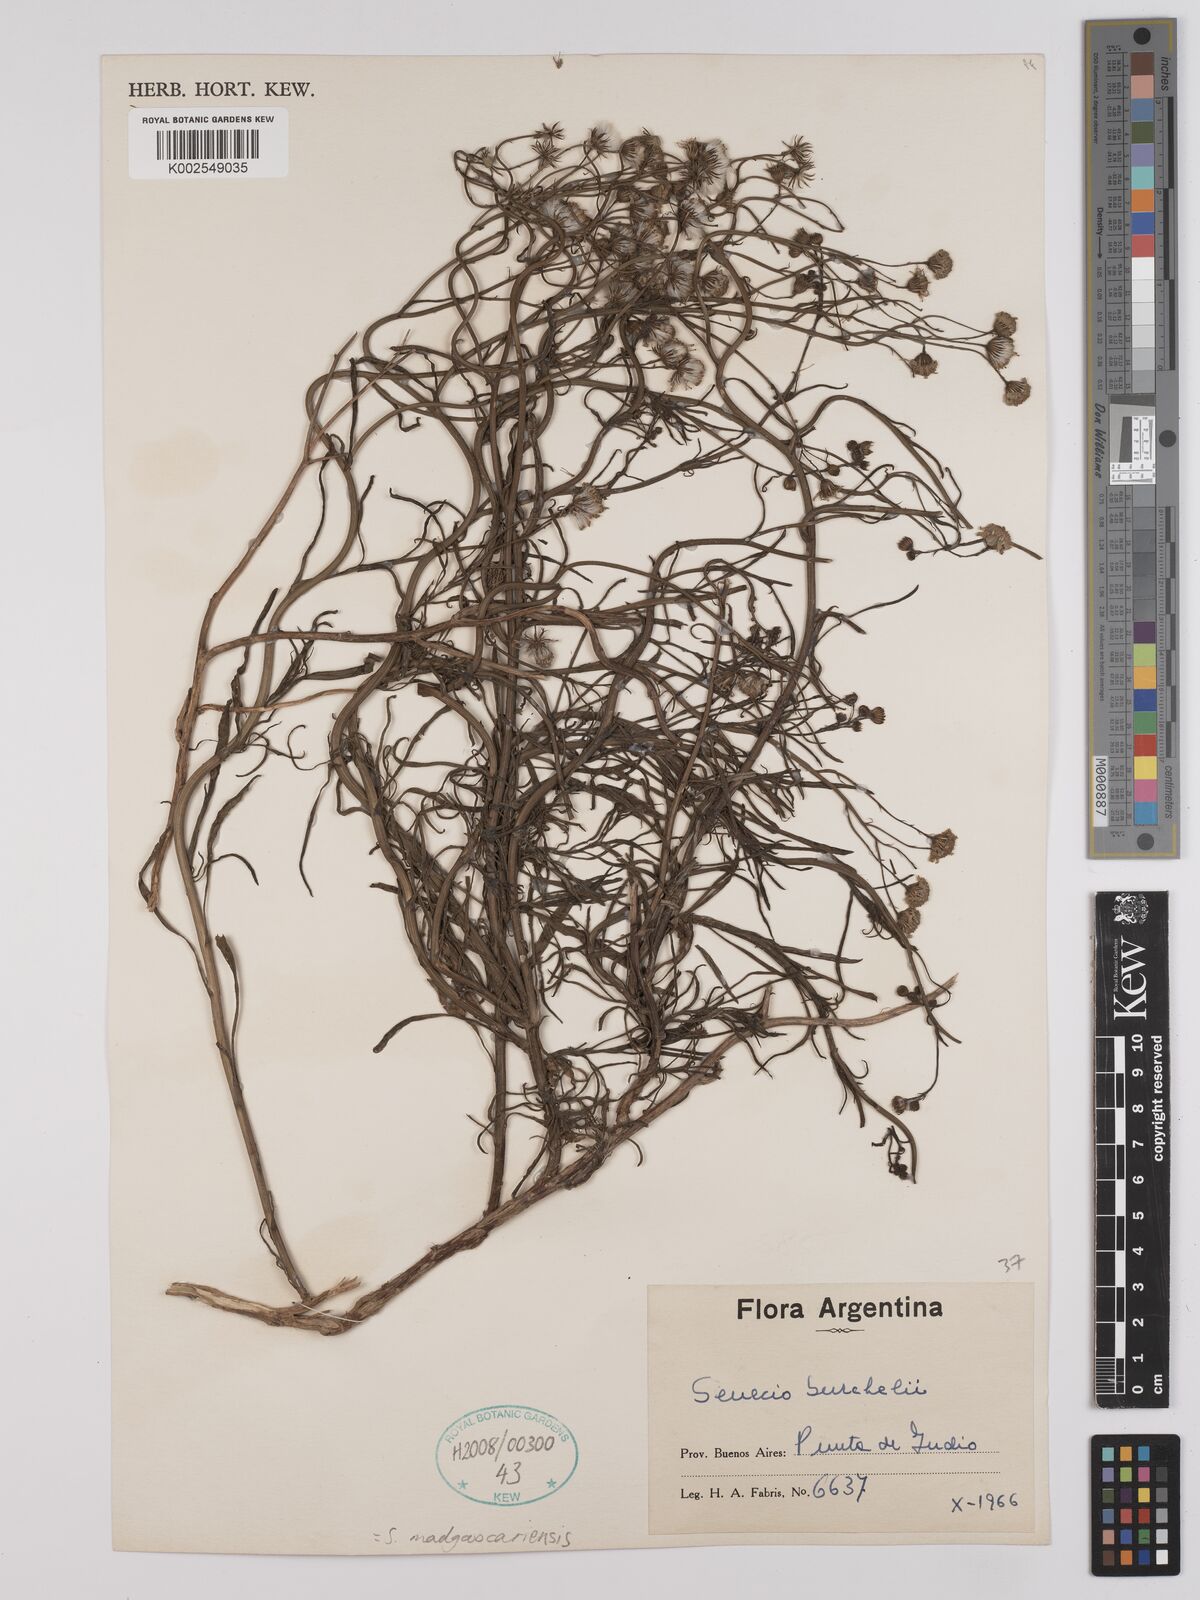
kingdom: Plantae
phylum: Tracheophyta
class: Magnoliopsida
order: Asterales
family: Asteraceae
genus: Senecio
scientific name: Senecio madagascariensis
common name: Madagascar ragwort
